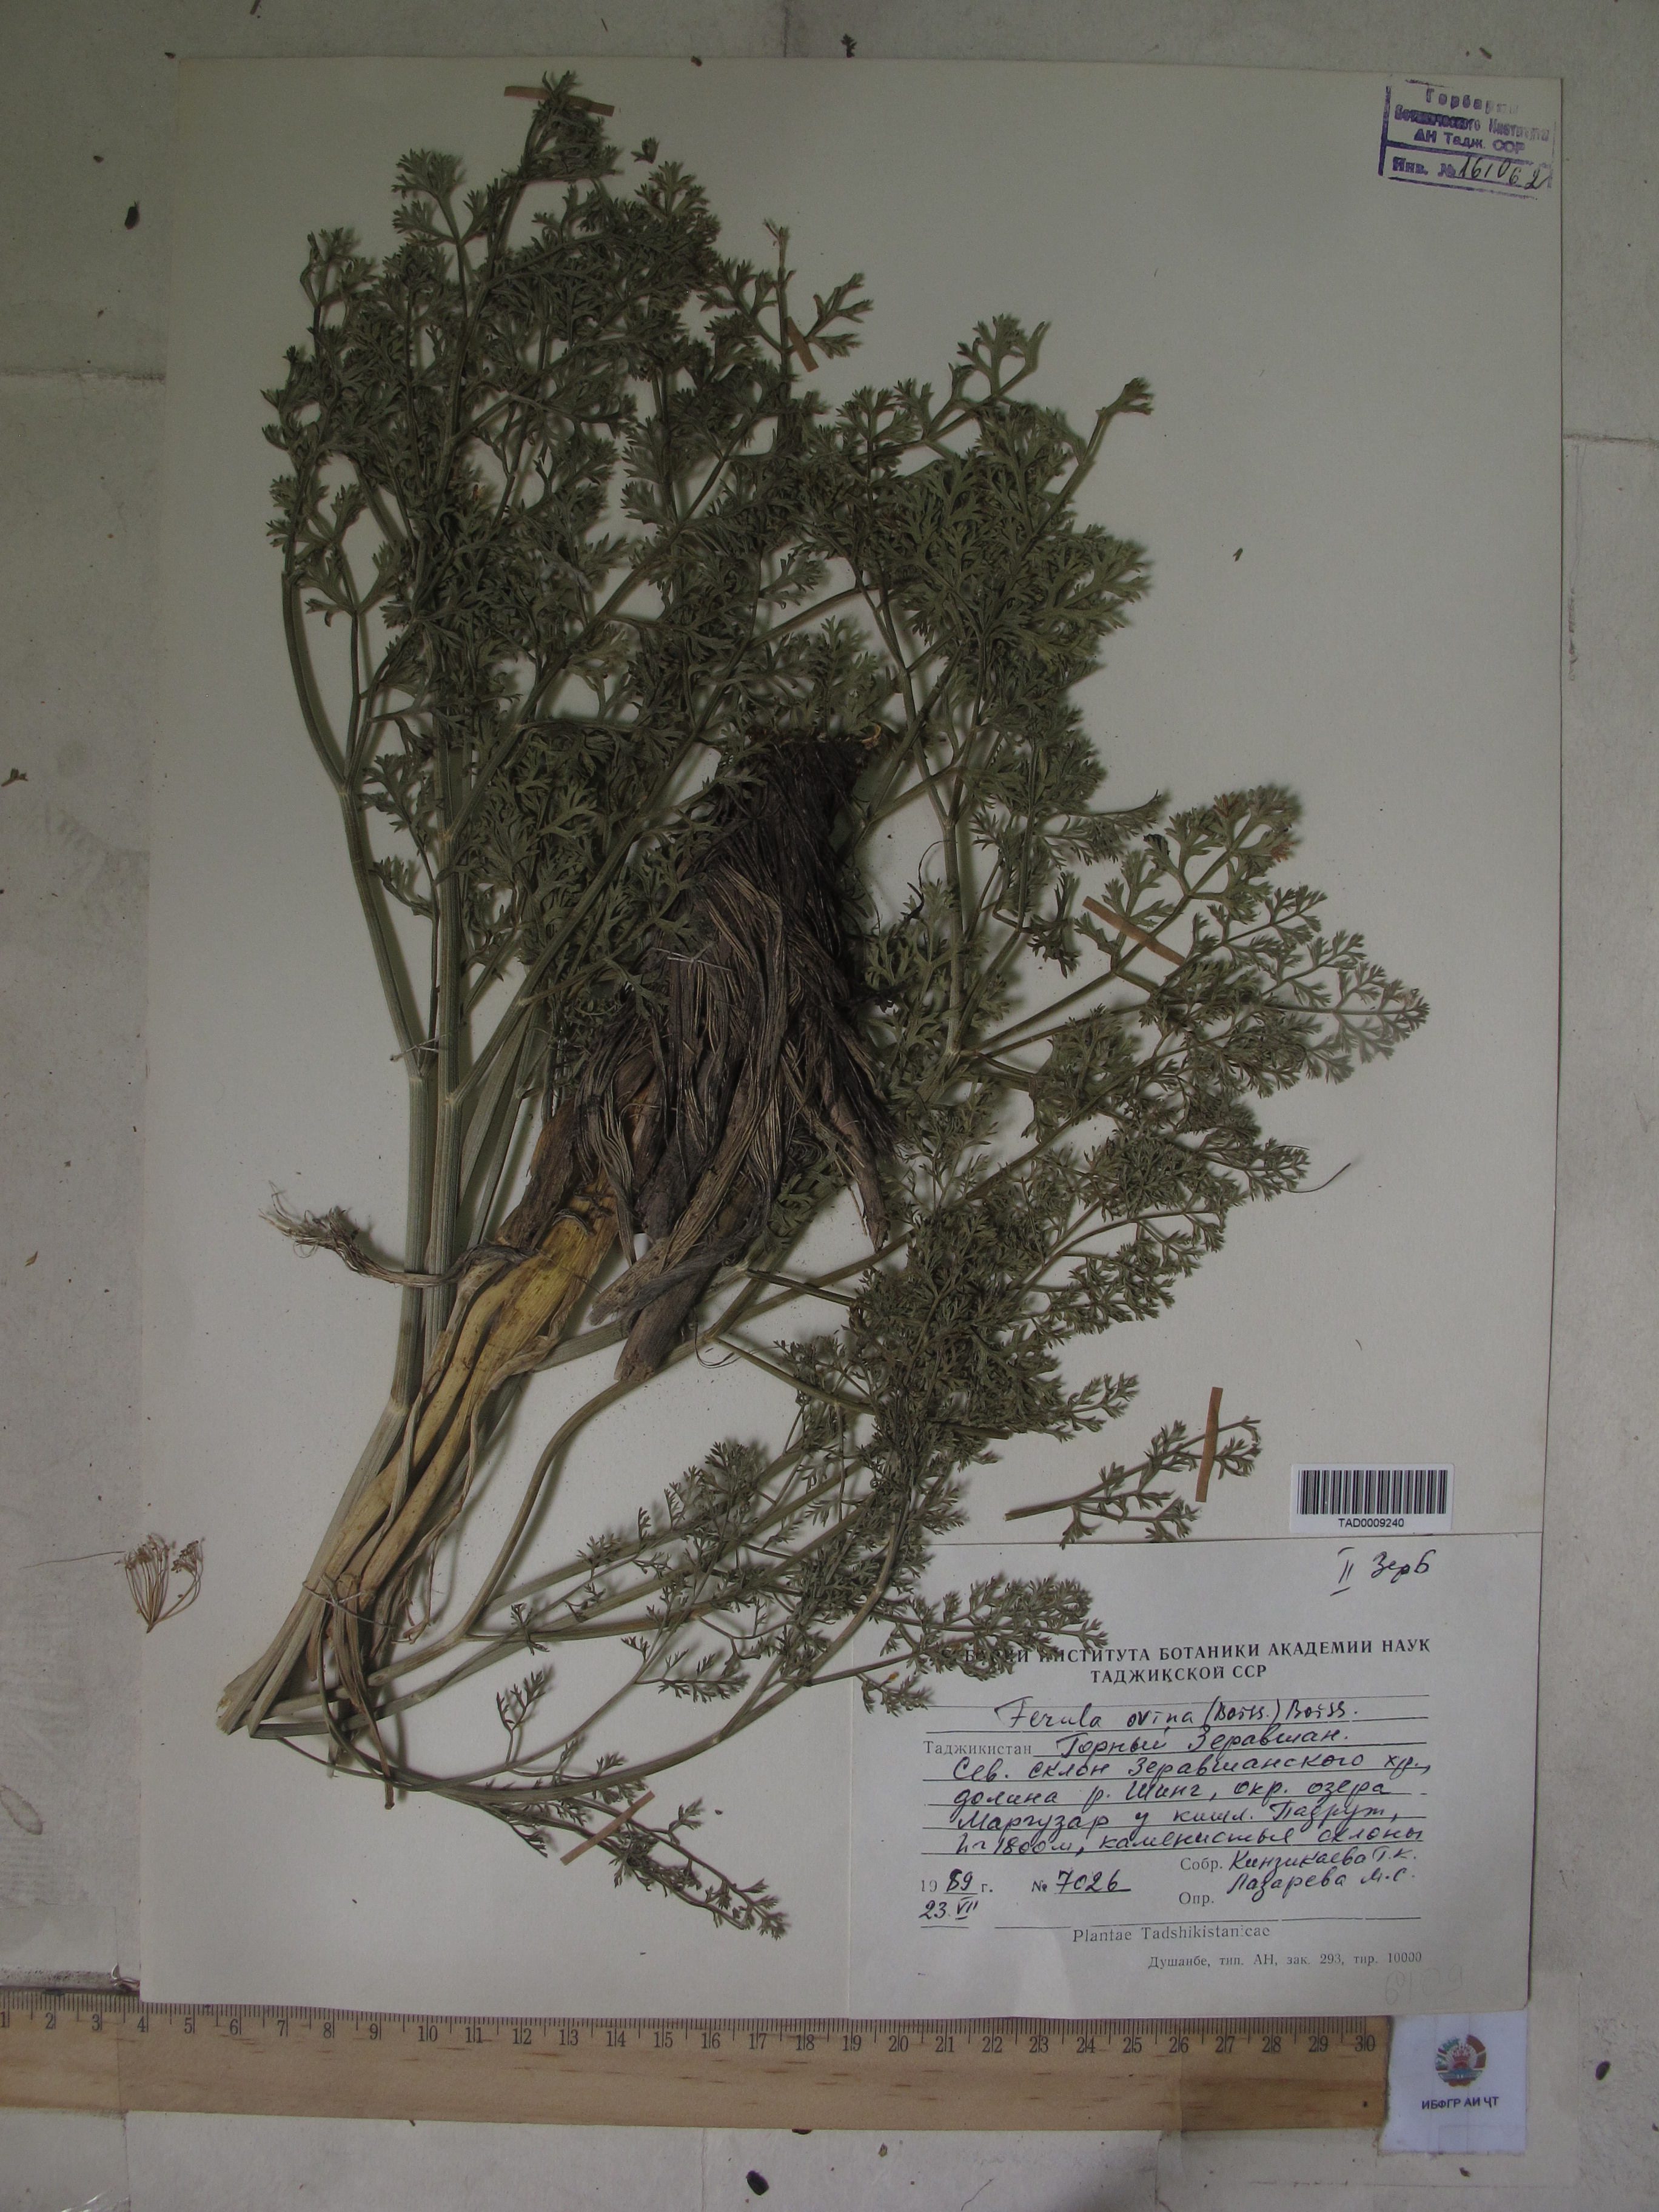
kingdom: Plantae
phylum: Tracheophyta
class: Magnoliopsida
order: Apiales
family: Apiaceae
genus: Ferula
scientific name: Ferula ovina
